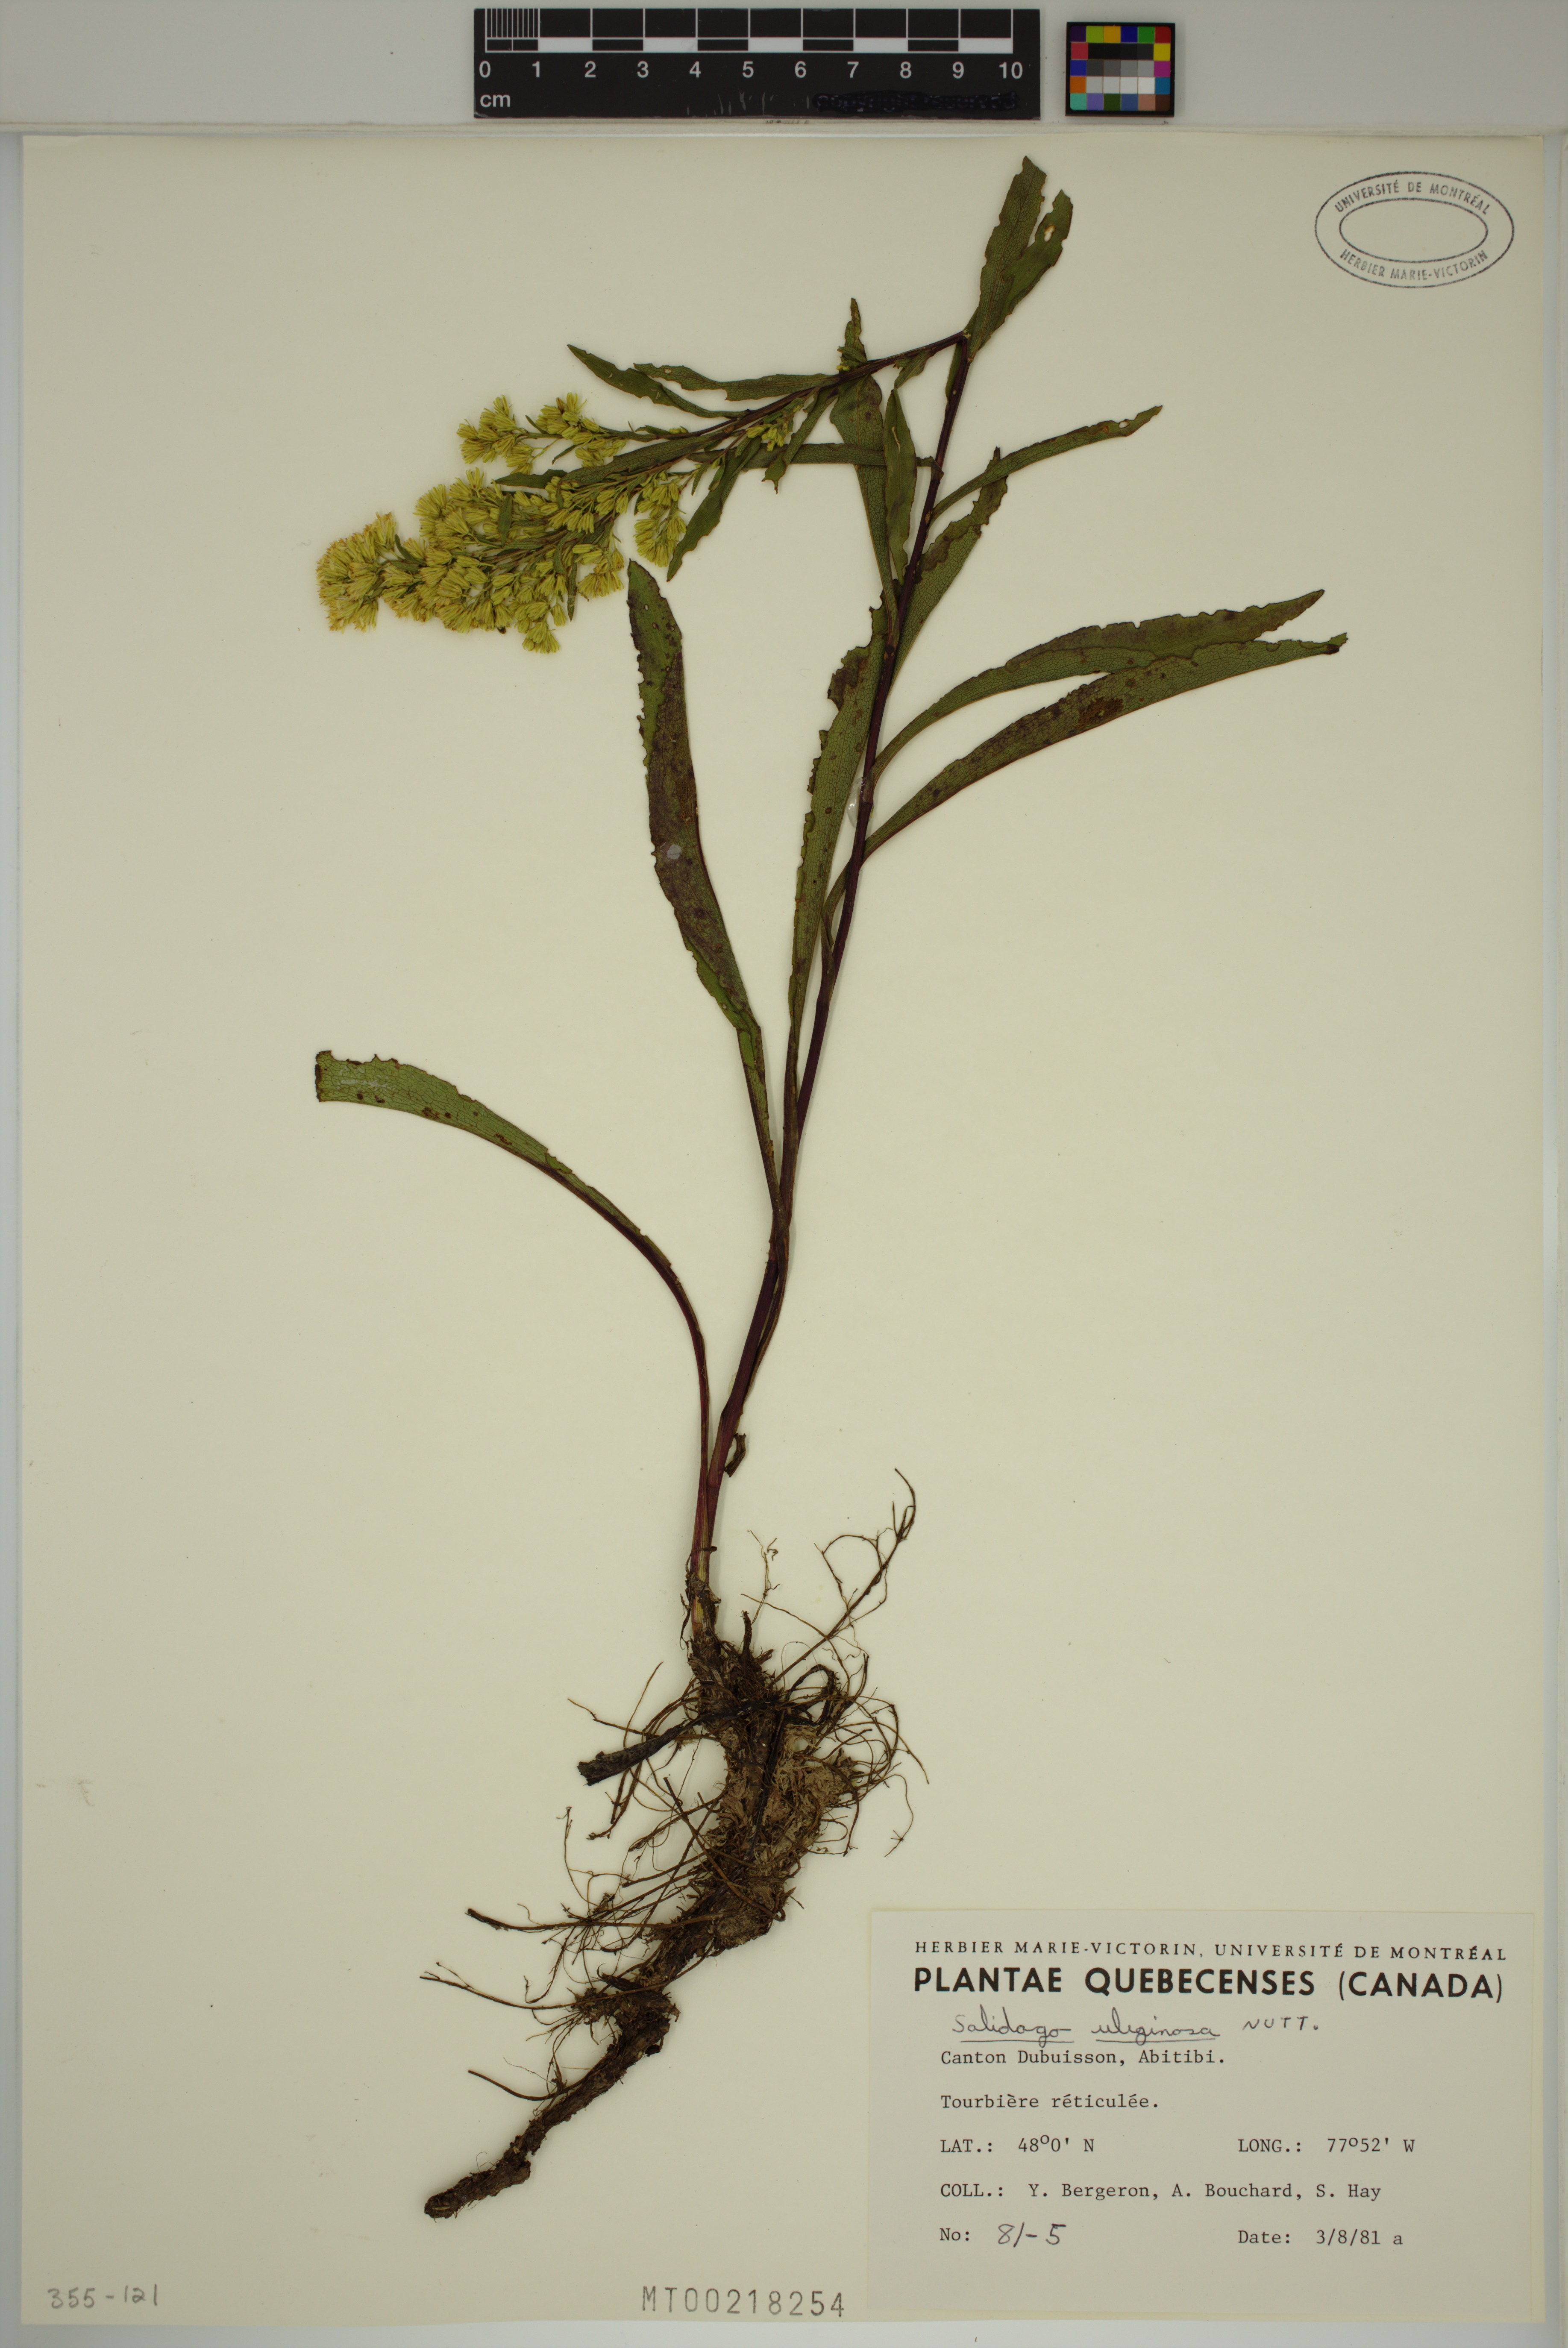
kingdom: Plantae
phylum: Tracheophyta
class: Magnoliopsida
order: Asterales
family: Asteraceae
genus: Solidago
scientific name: Solidago uliginosa
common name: Bog goldenrod
